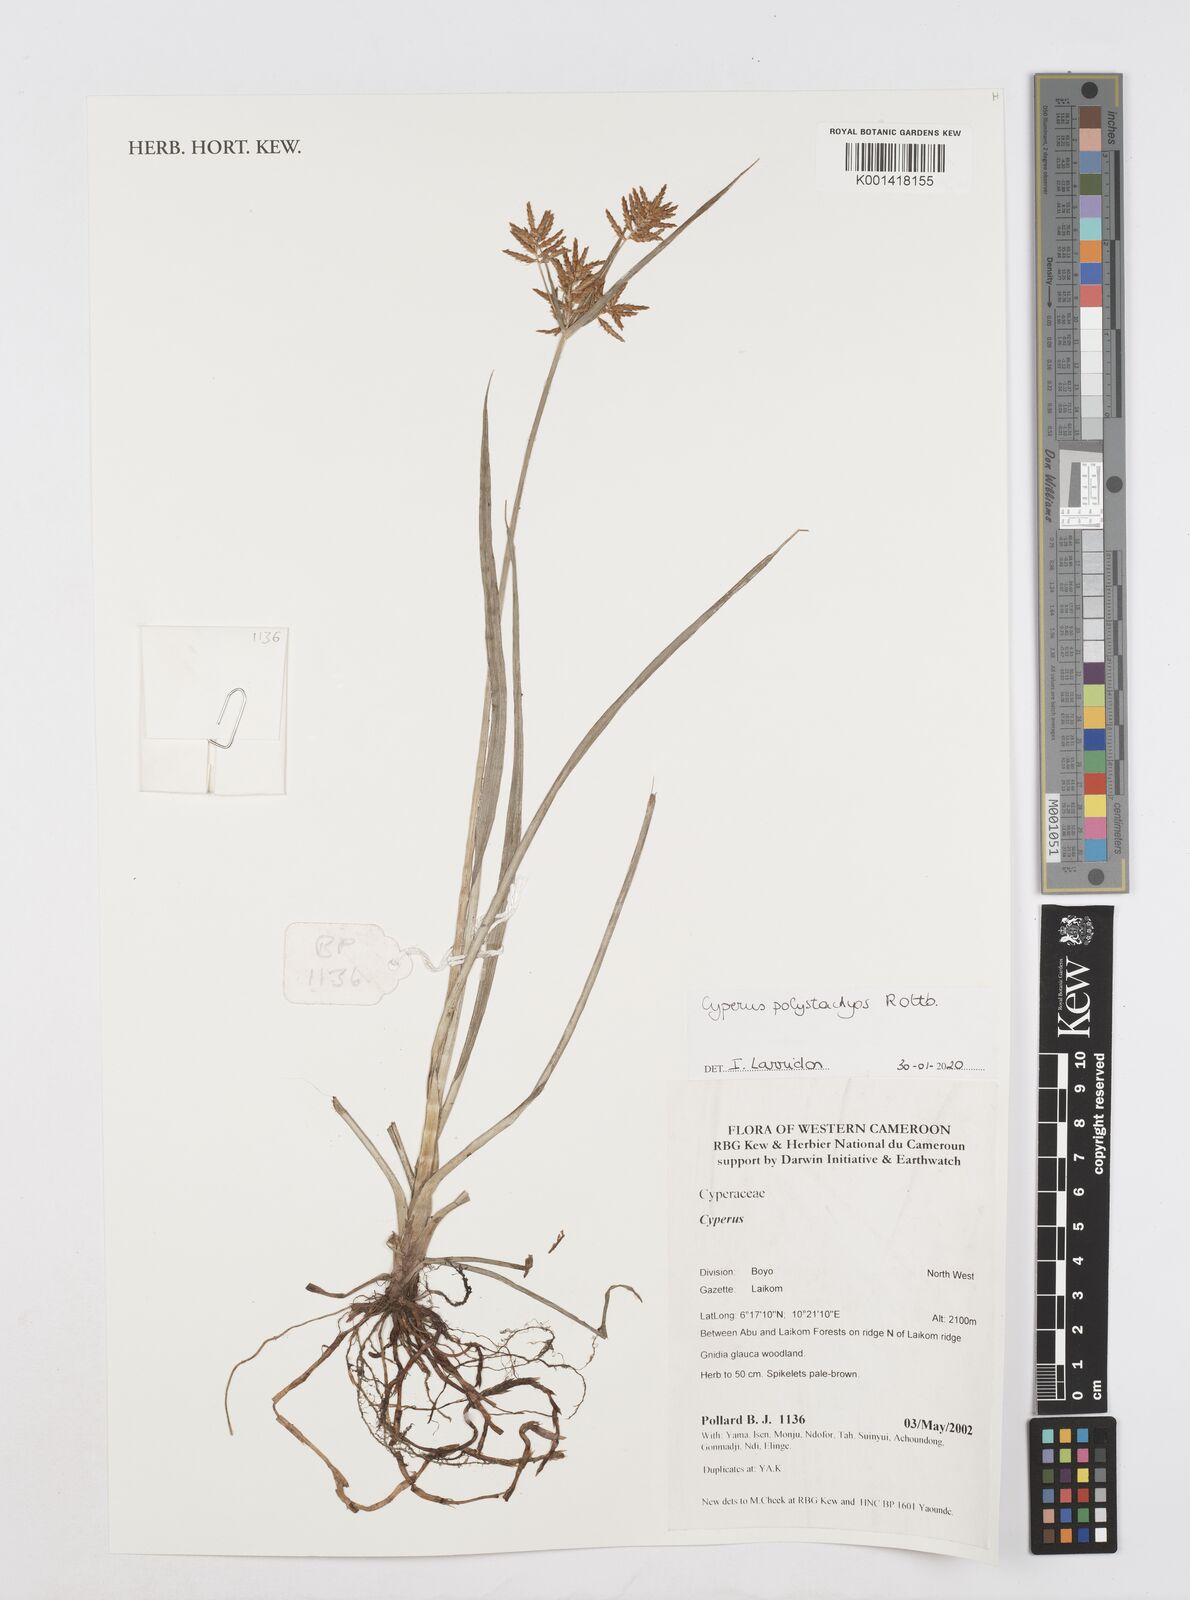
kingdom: Plantae
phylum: Tracheophyta
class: Liliopsida
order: Poales
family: Cyperaceae
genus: Cyperus
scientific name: Cyperus polystachyos
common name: Bunchy flat sedge
